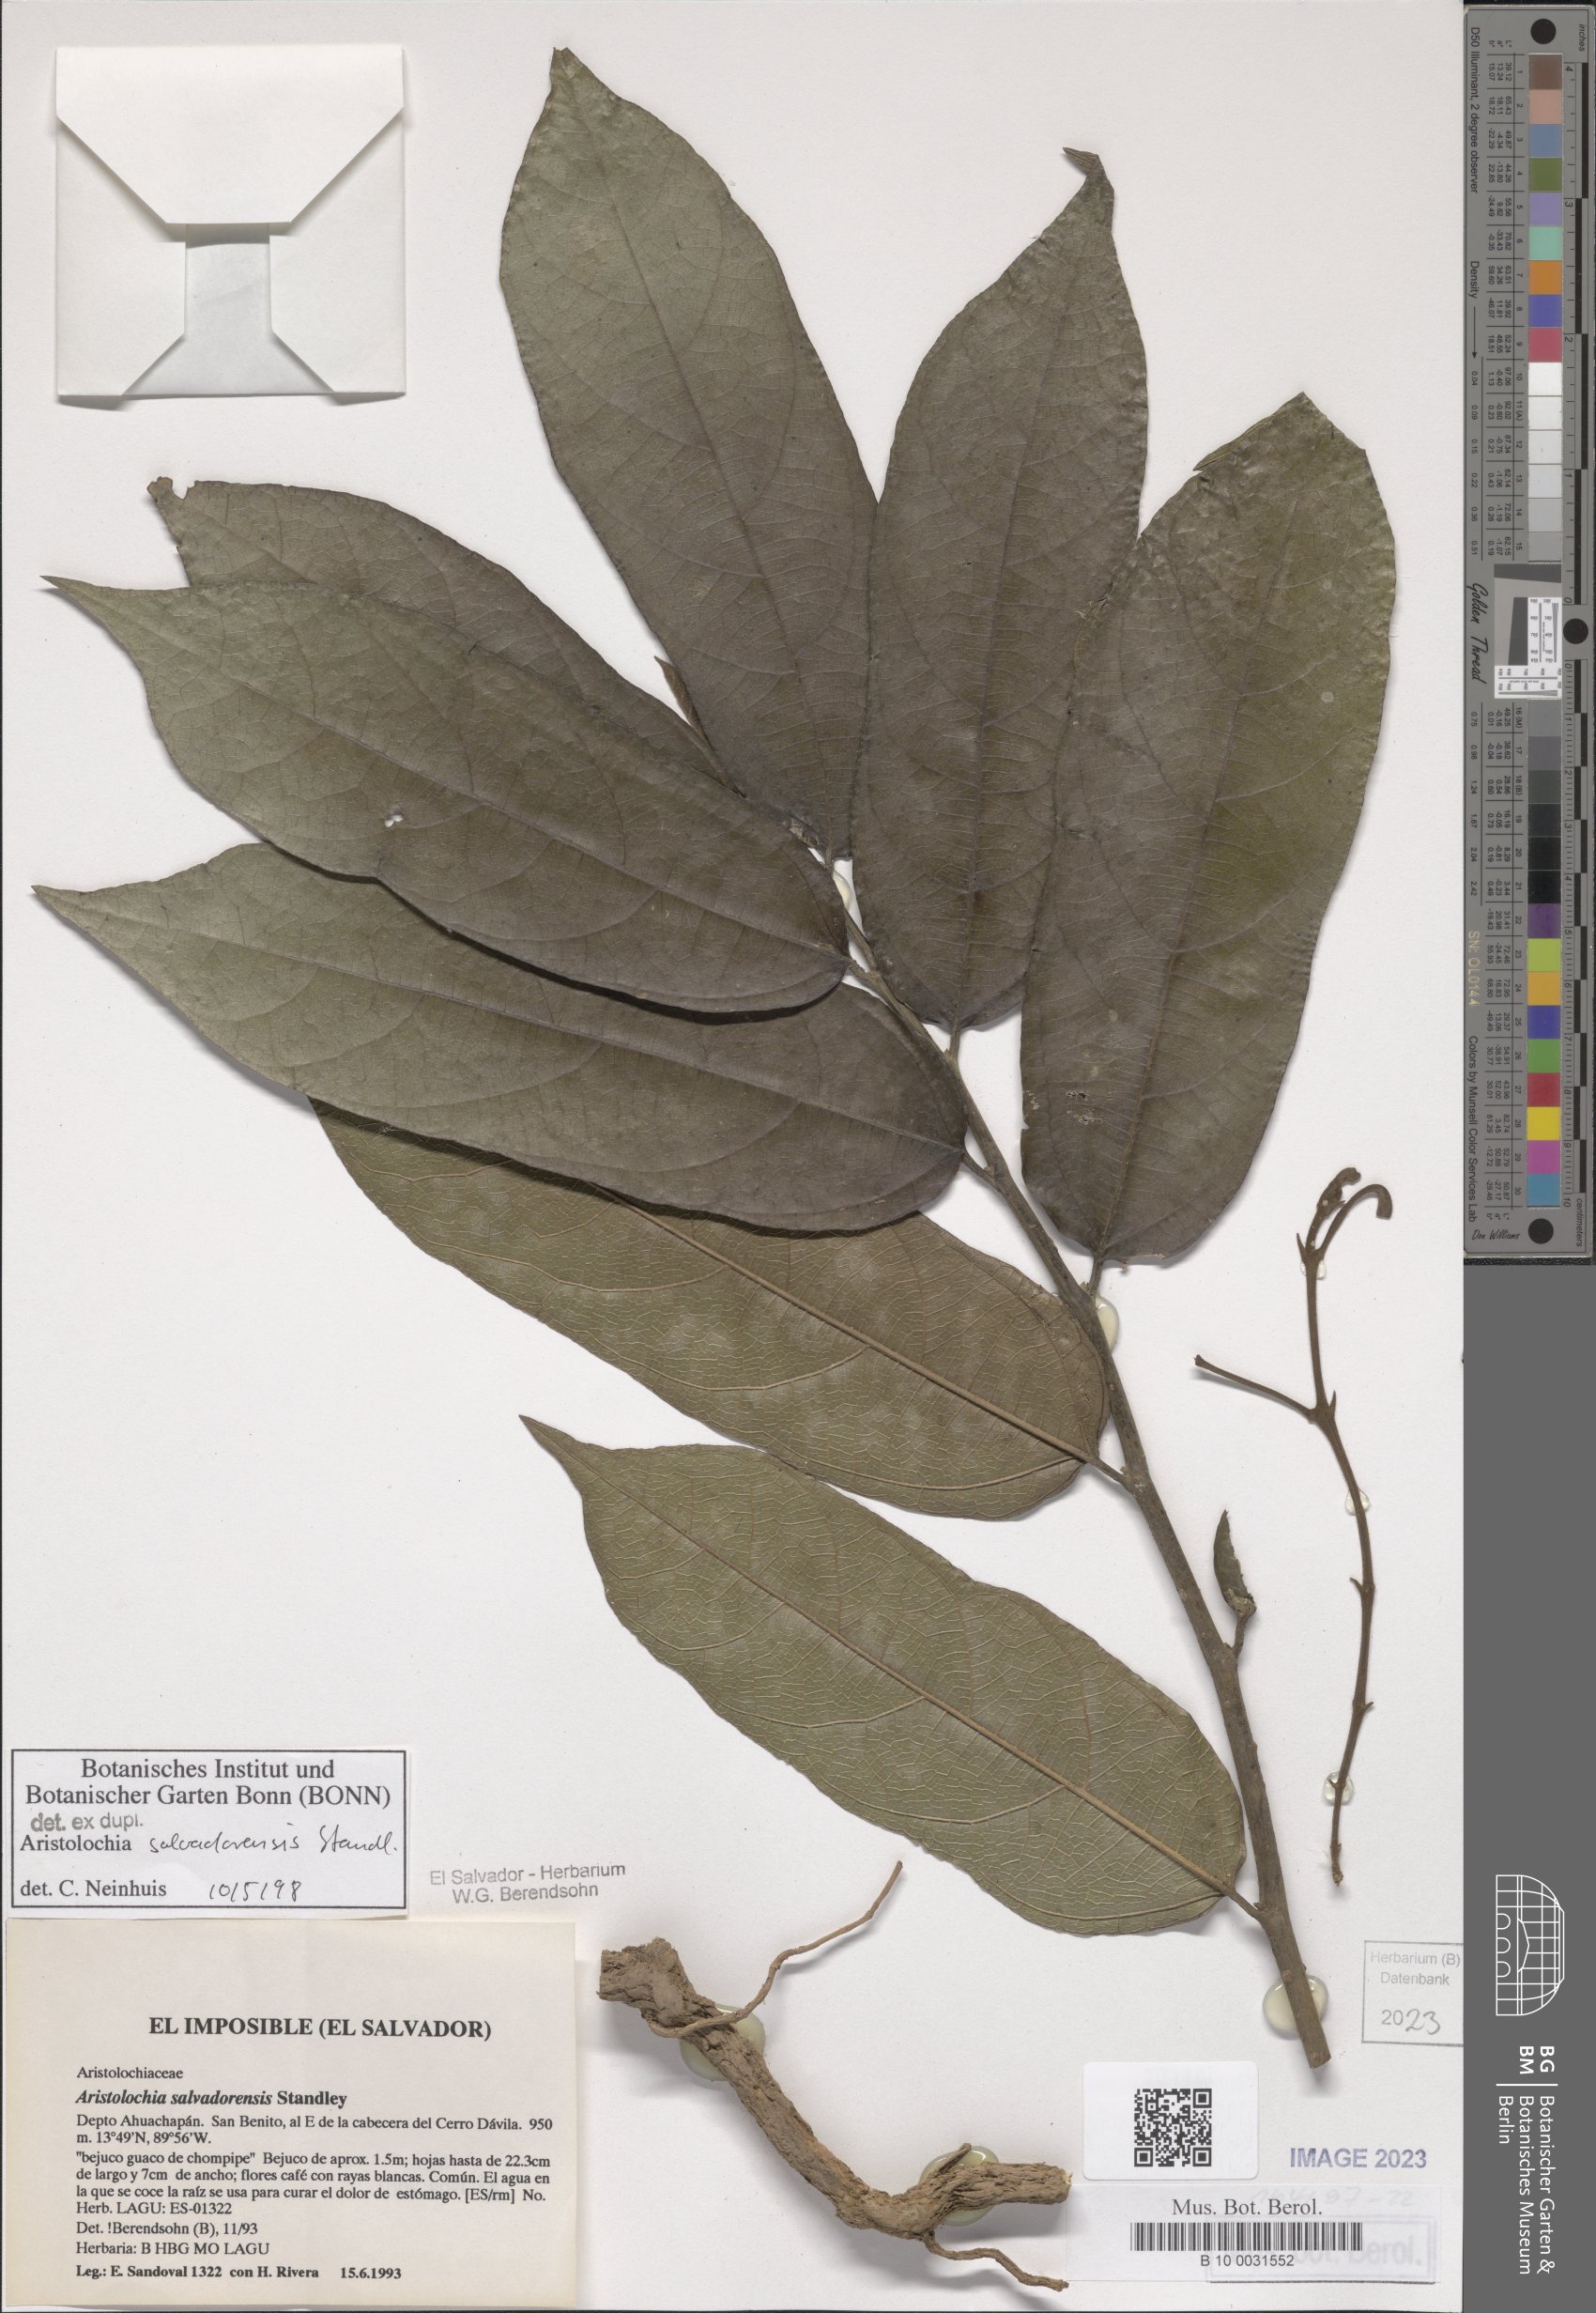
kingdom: Plantae
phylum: Tracheophyta
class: Magnoliopsida
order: Piperales
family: Aristolochiaceae
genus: Isotrema
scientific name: Isotrema arborea
